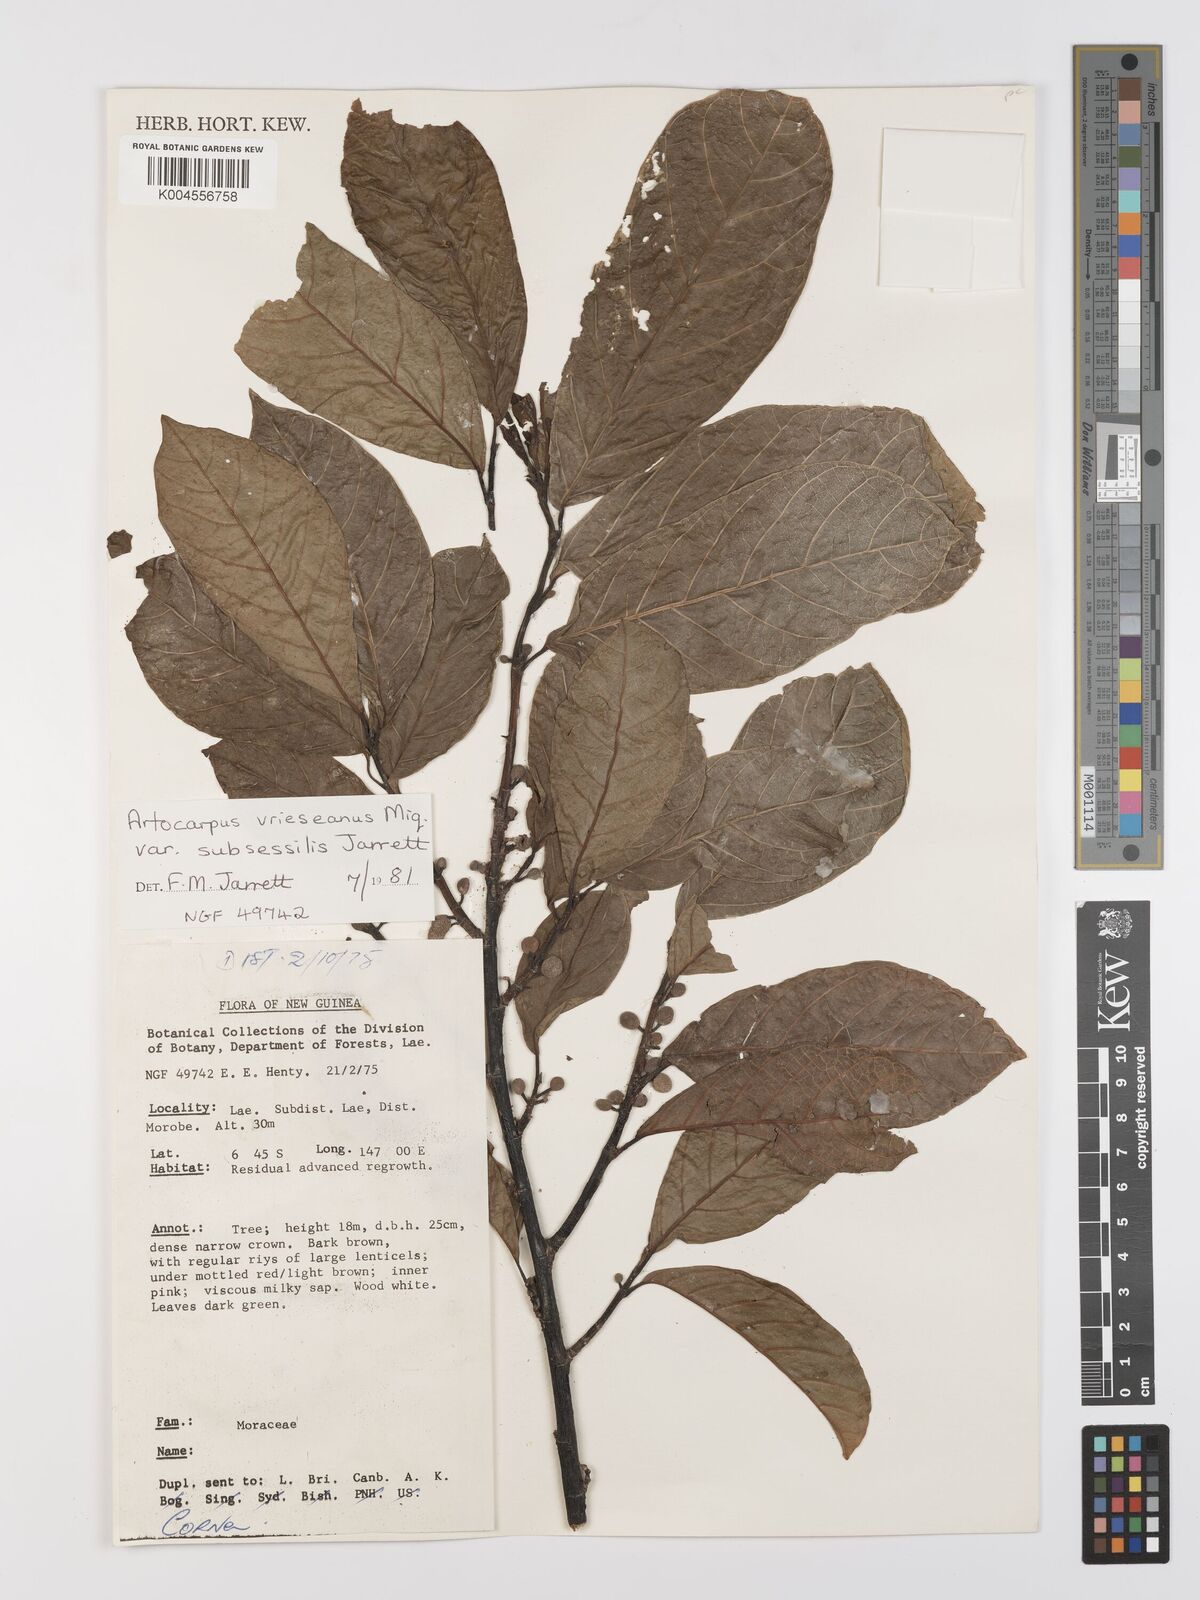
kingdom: Plantae
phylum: Tracheophyta
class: Magnoliopsida
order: Rosales
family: Moraceae
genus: Artocarpus
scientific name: Artocarpus vrieseanus
